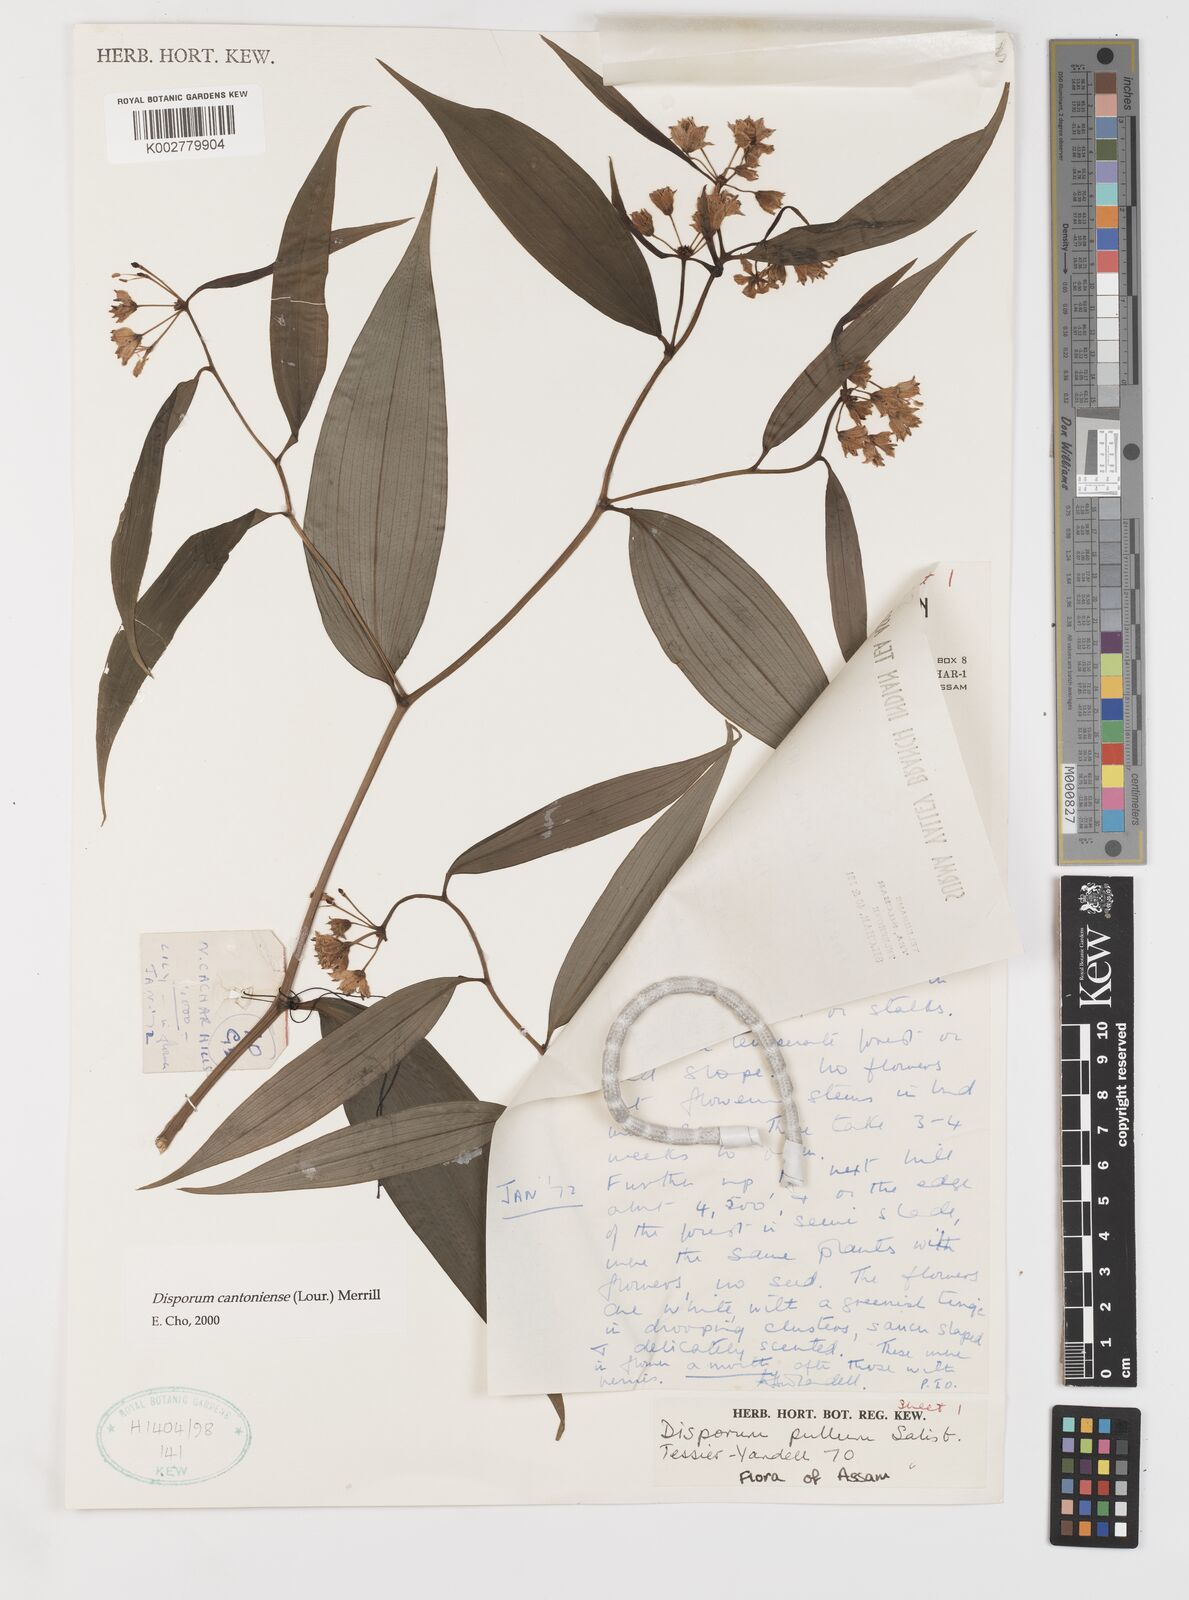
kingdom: Plantae
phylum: Tracheophyta
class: Liliopsida
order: Liliales
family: Colchicaceae
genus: Disporum
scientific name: Disporum cantoniense
